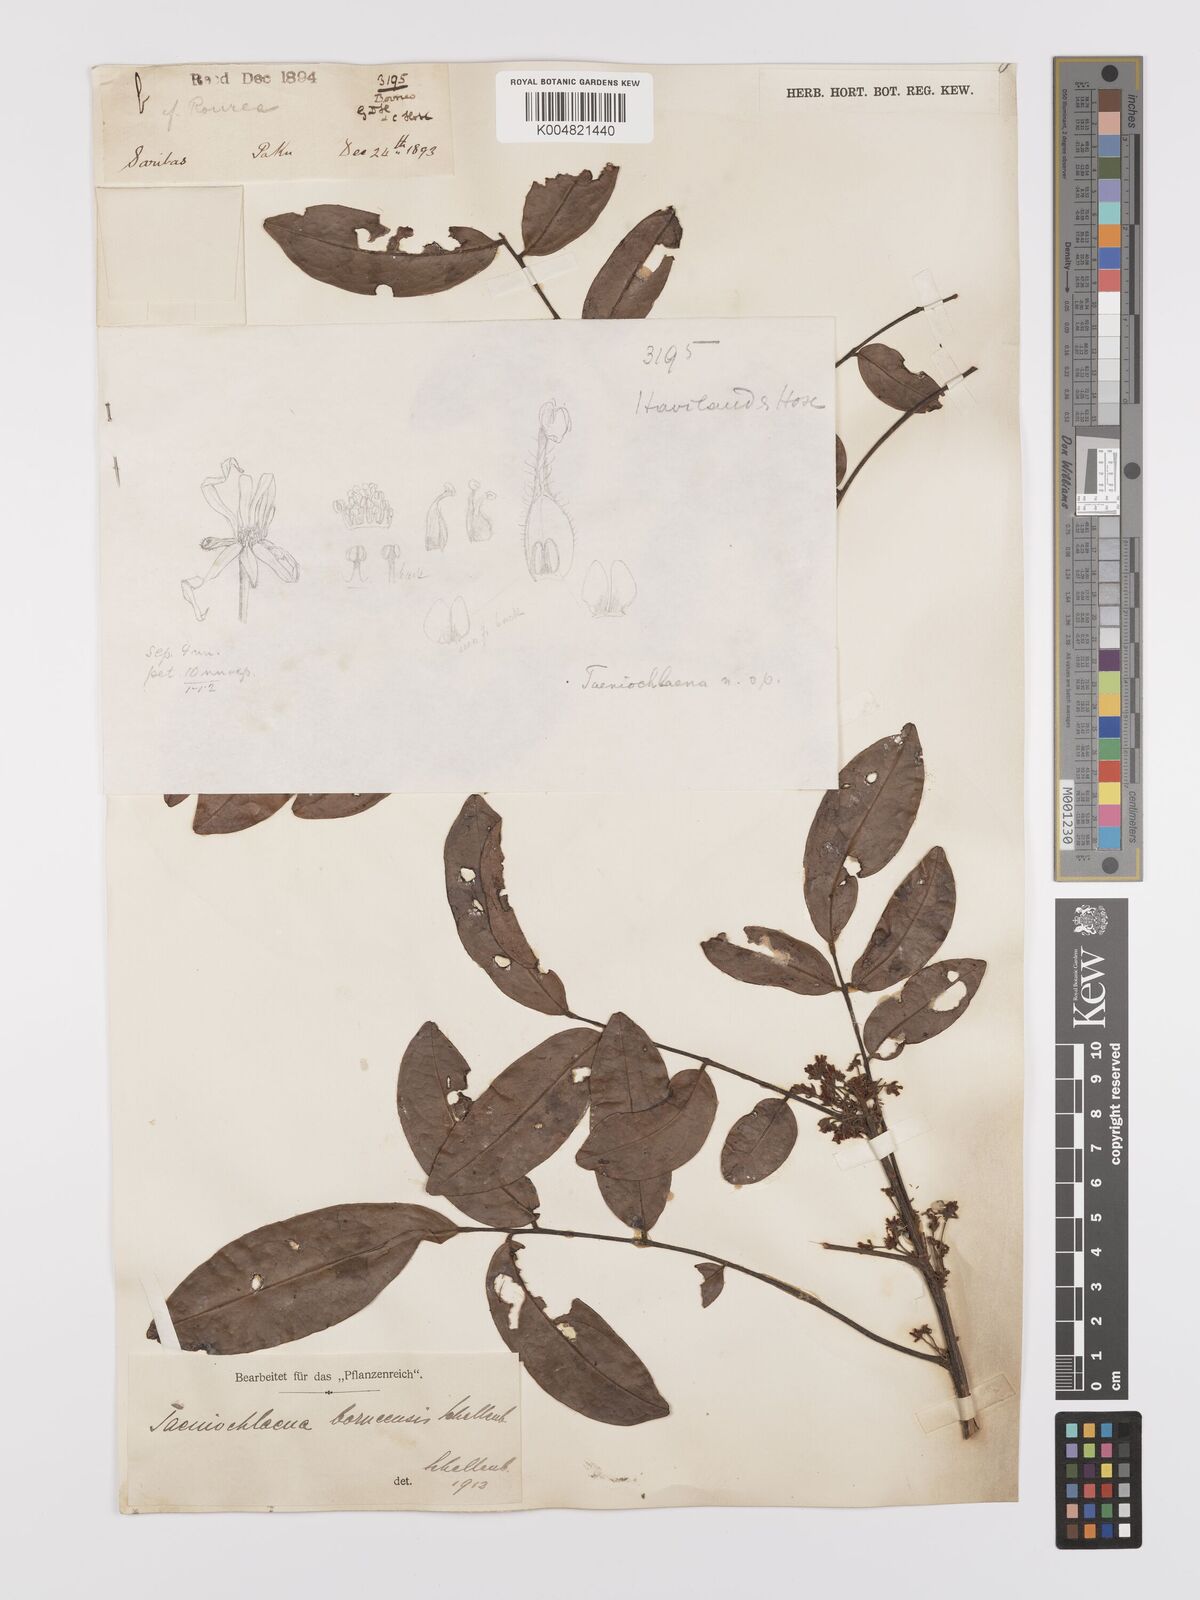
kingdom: Plantae
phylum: Tracheophyta
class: Magnoliopsida
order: Oxalidales
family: Connaraceae
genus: Rourea
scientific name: Rourea acutipetala
